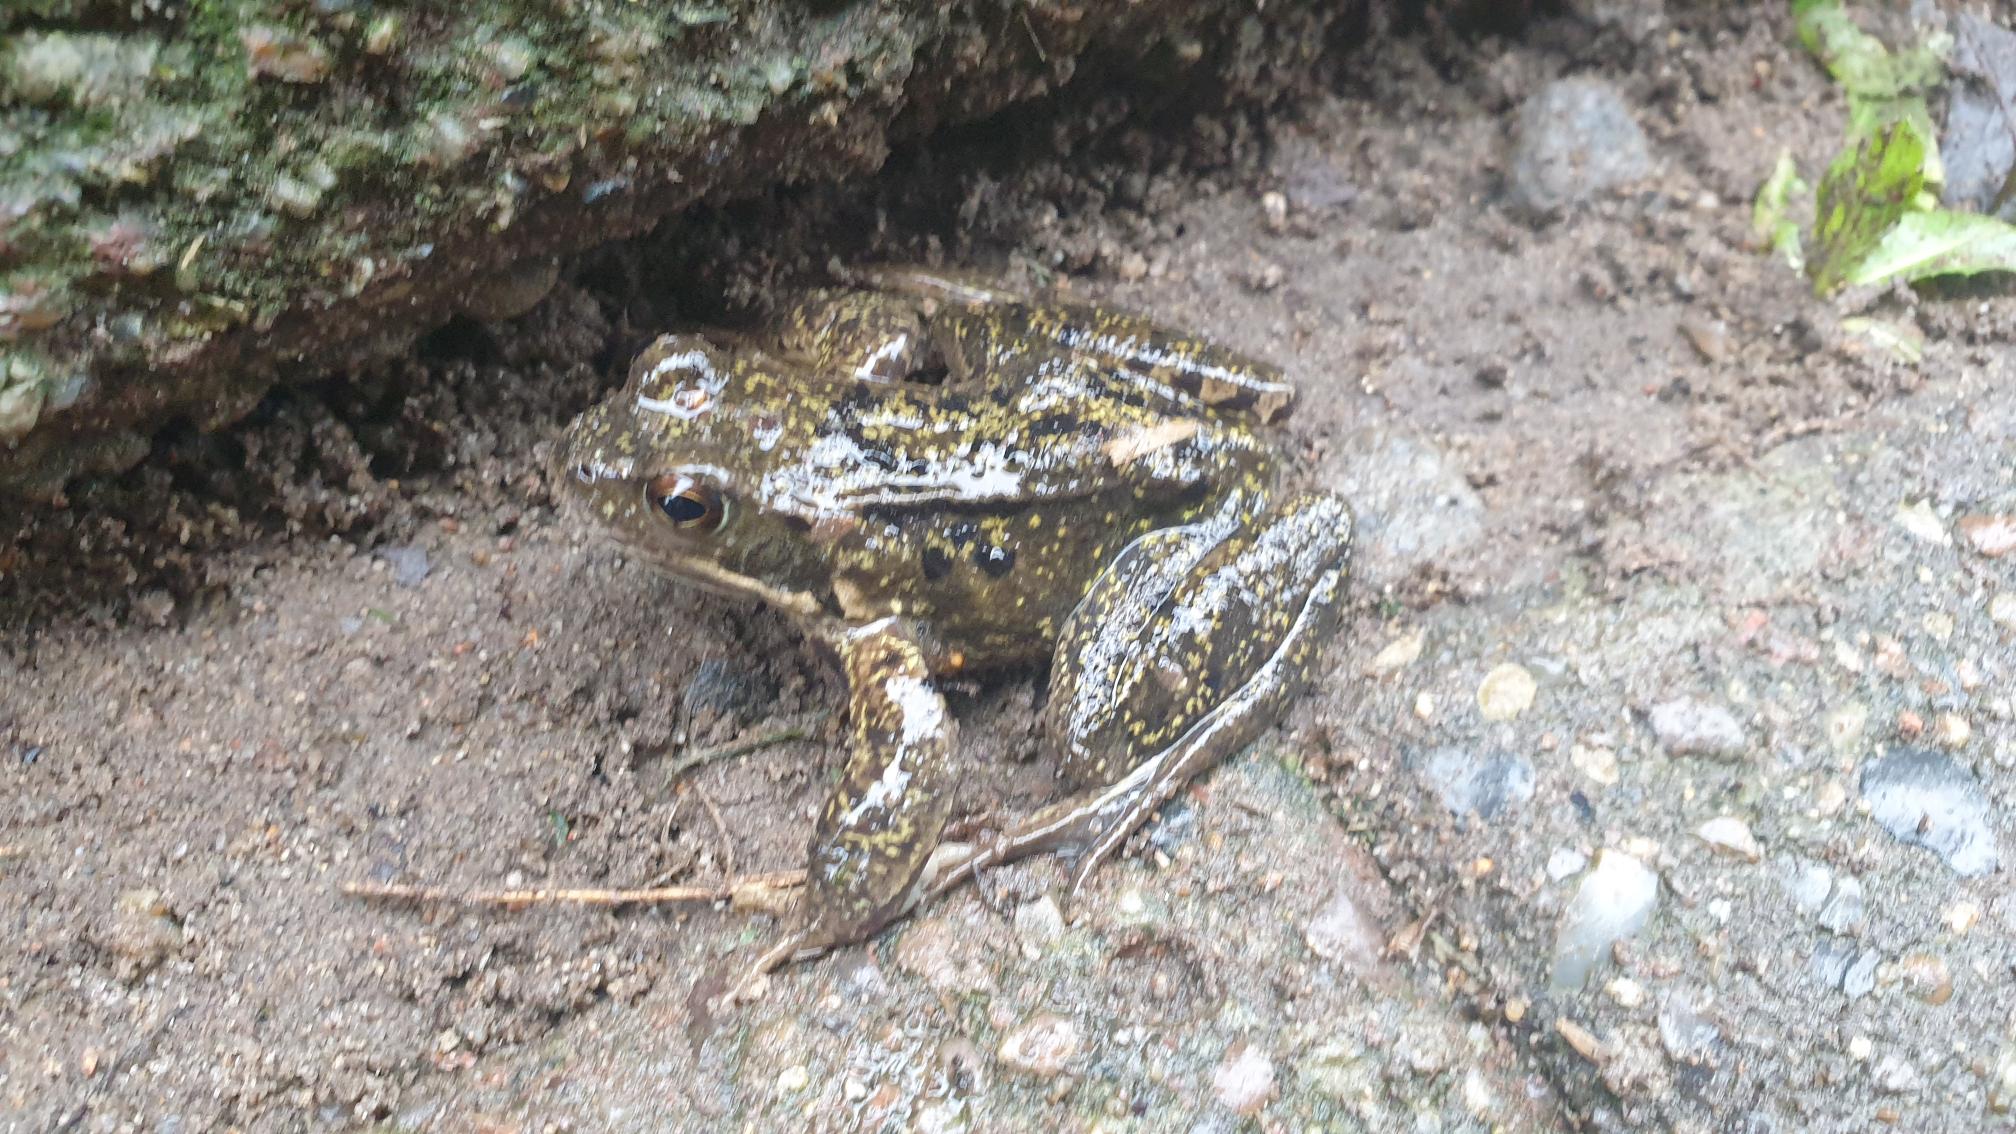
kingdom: Animalia
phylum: Chordata
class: Amphibia
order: Anura
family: Ranidae
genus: Rana
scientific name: Rana temporaria
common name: Butsnudet frø
